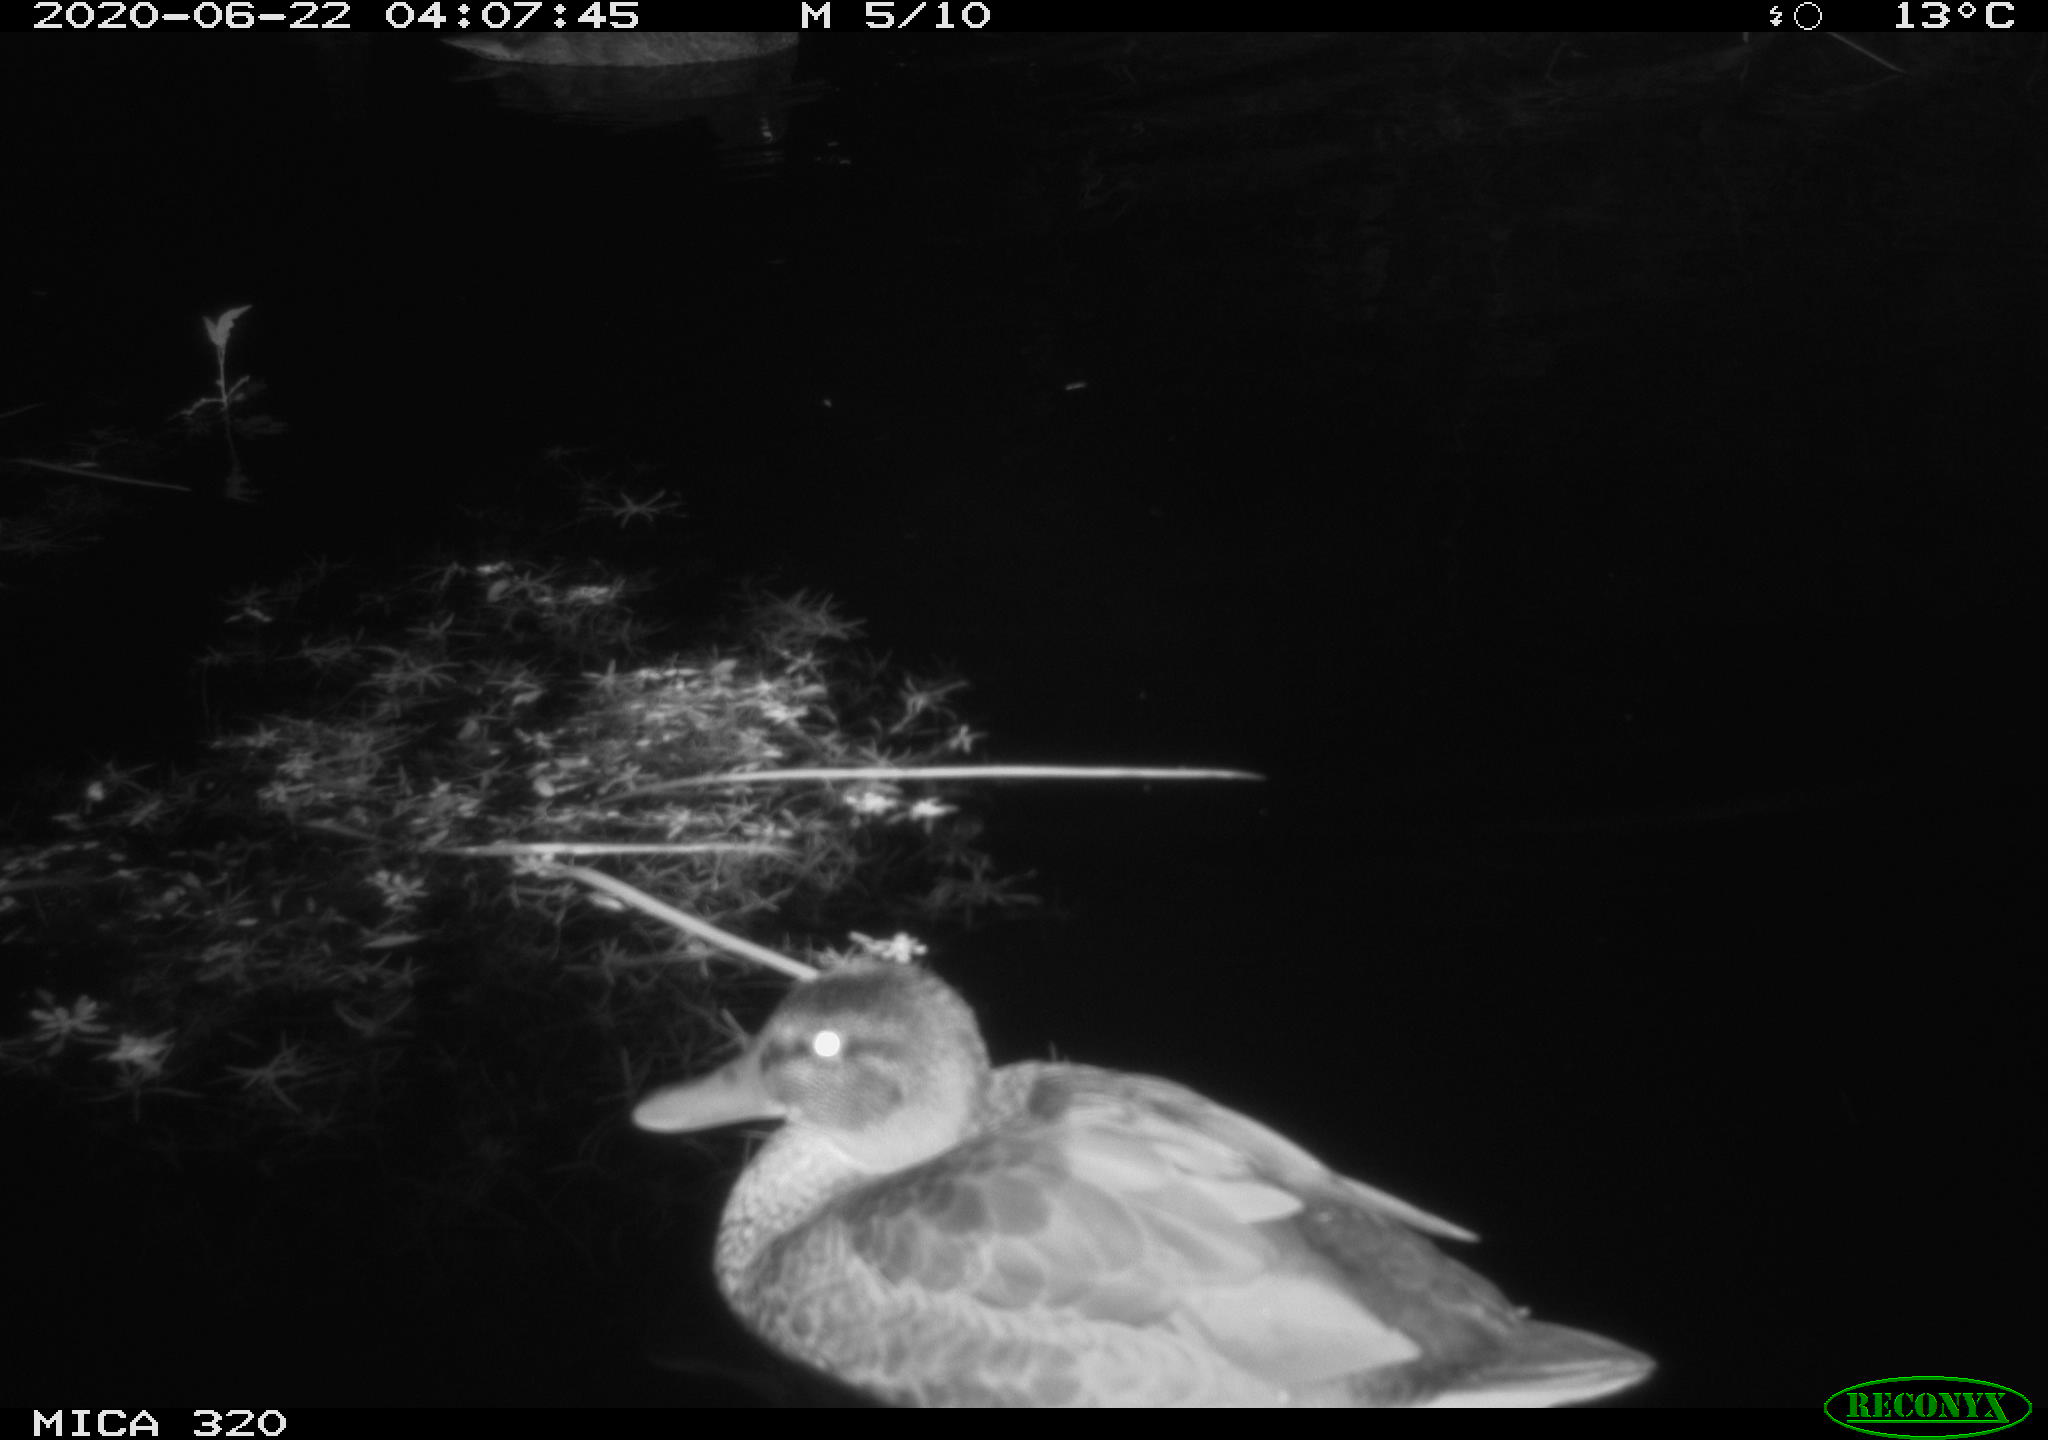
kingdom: Animalia
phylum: Chordata
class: Aves
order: Anseriformes
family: Anatidae
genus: Anas
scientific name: Anas platyrhynchos
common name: Mallard
